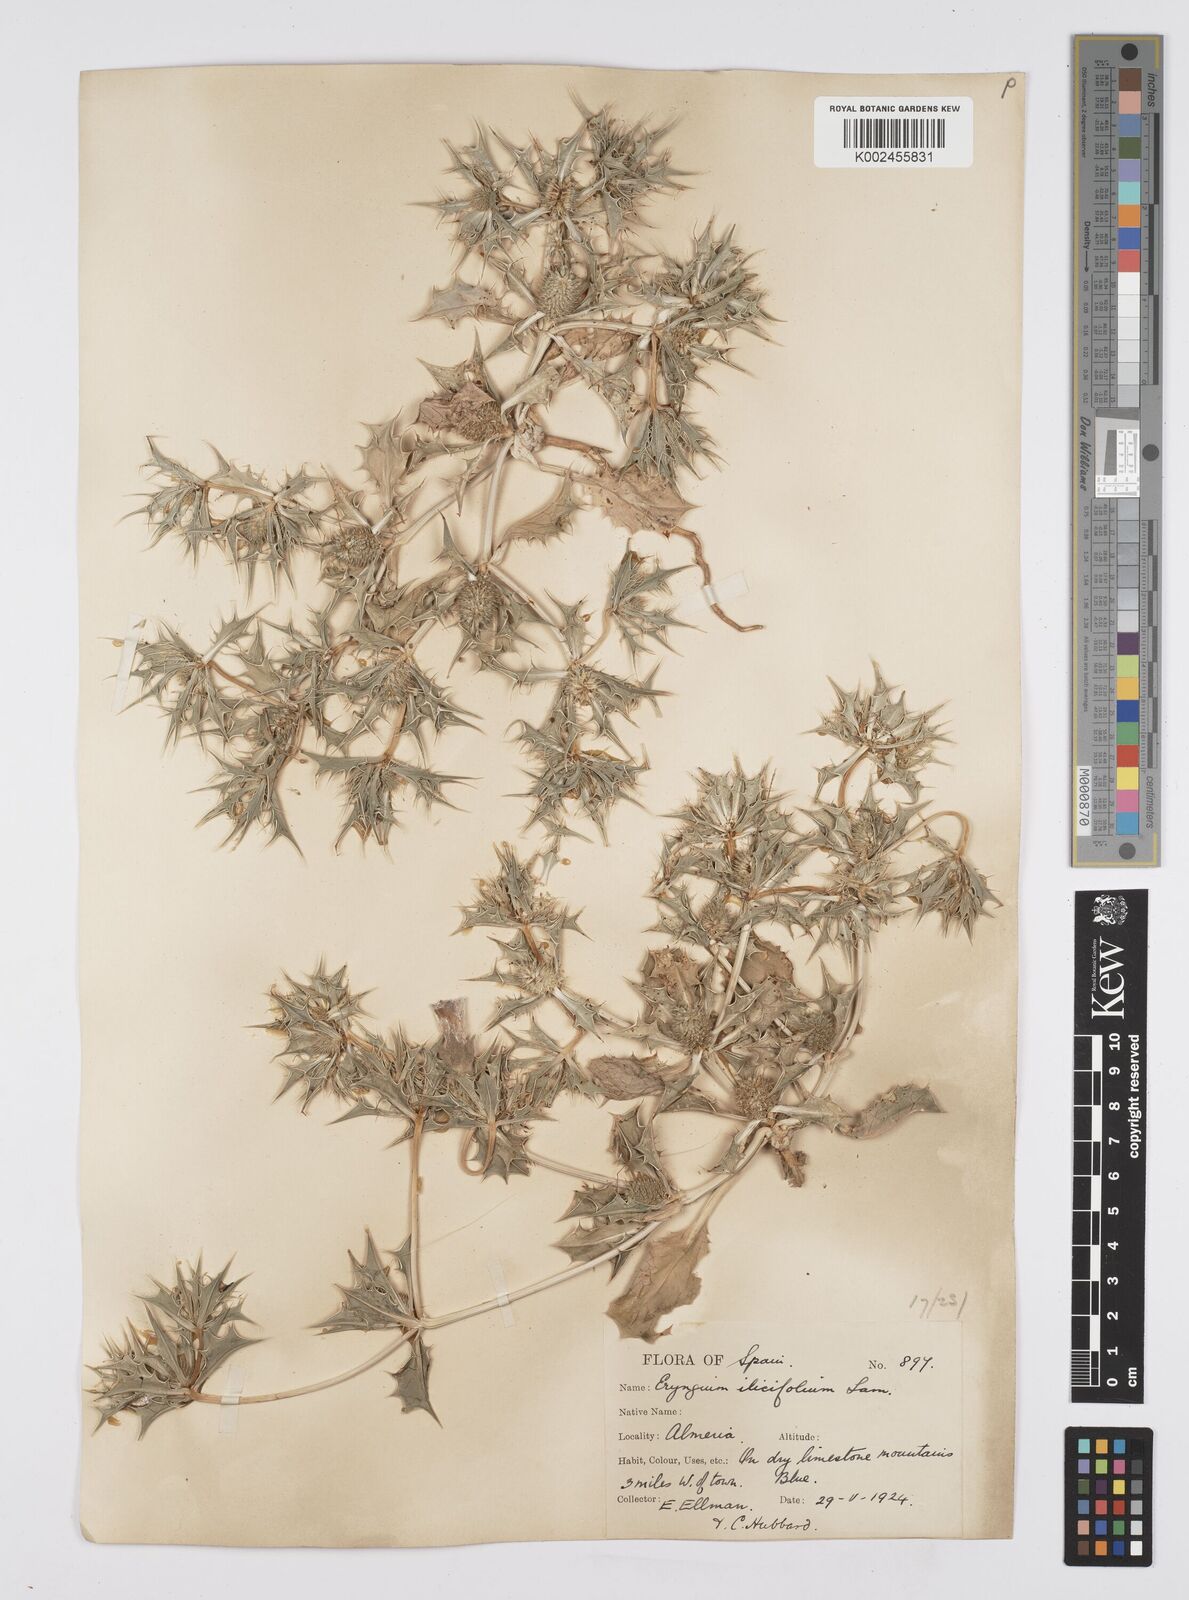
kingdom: Plantae
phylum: Tracheophyta
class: Magnoliopsida
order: Apiales
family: Apiaceae
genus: Eryngium
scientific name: Eryngium
